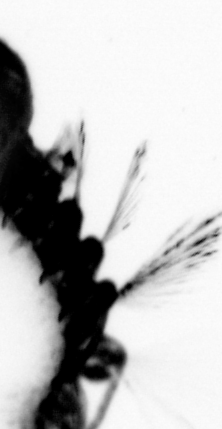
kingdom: Animalia
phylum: Annelida
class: Polychaeta
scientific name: Polychaeta
